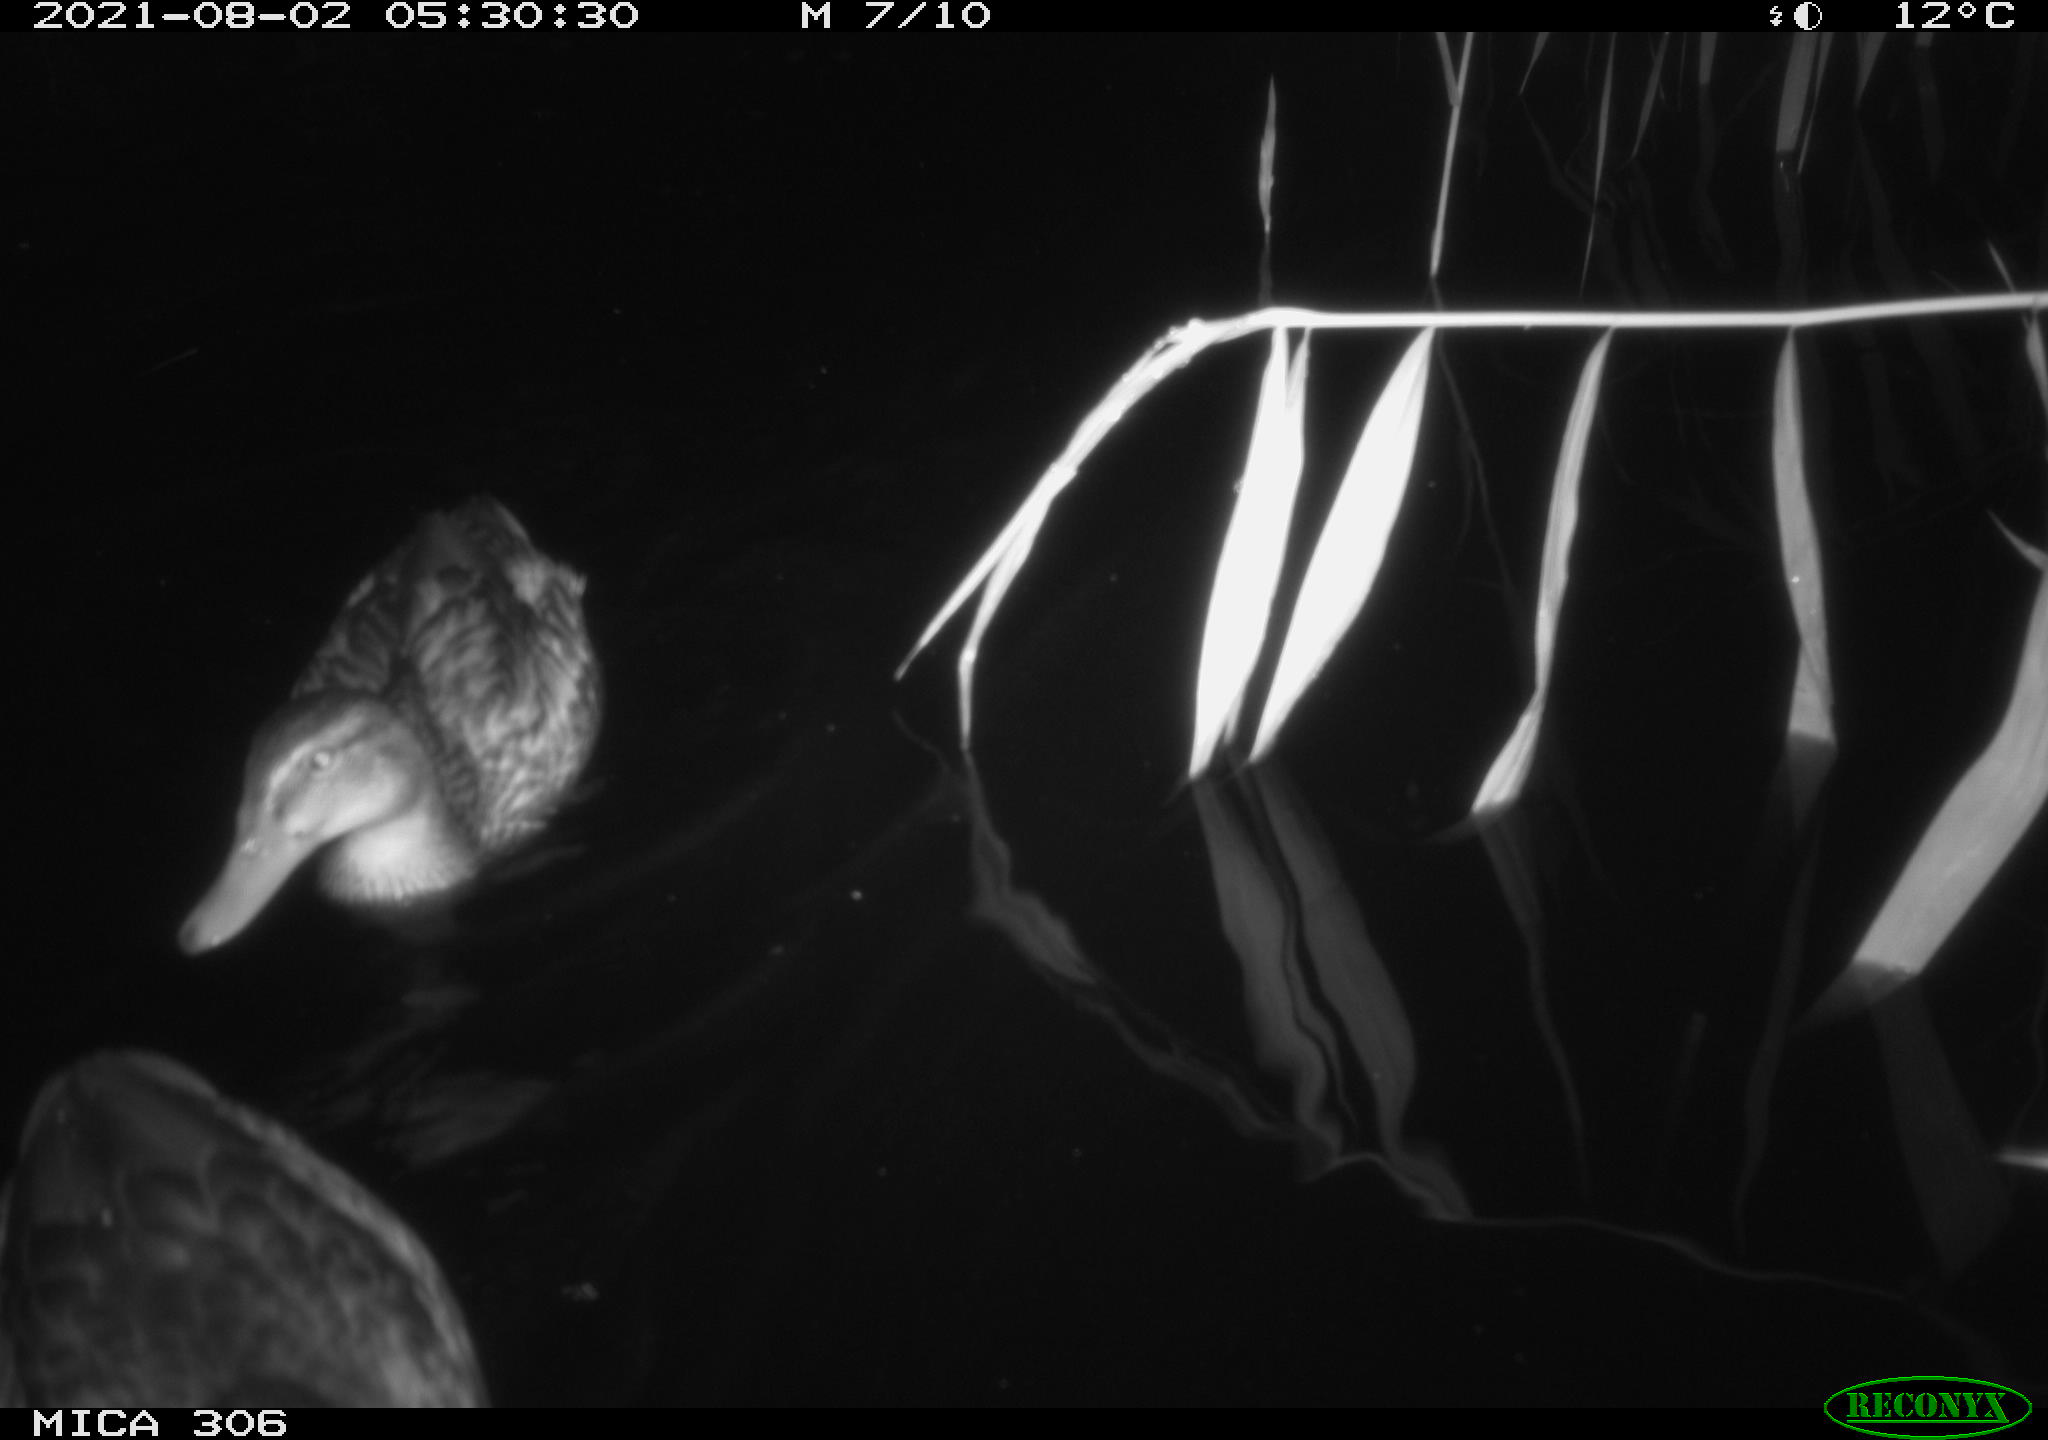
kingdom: Animalia
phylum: Chordata
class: Aves
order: Anseriformes
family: Anatidae
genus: Anas
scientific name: Anas
